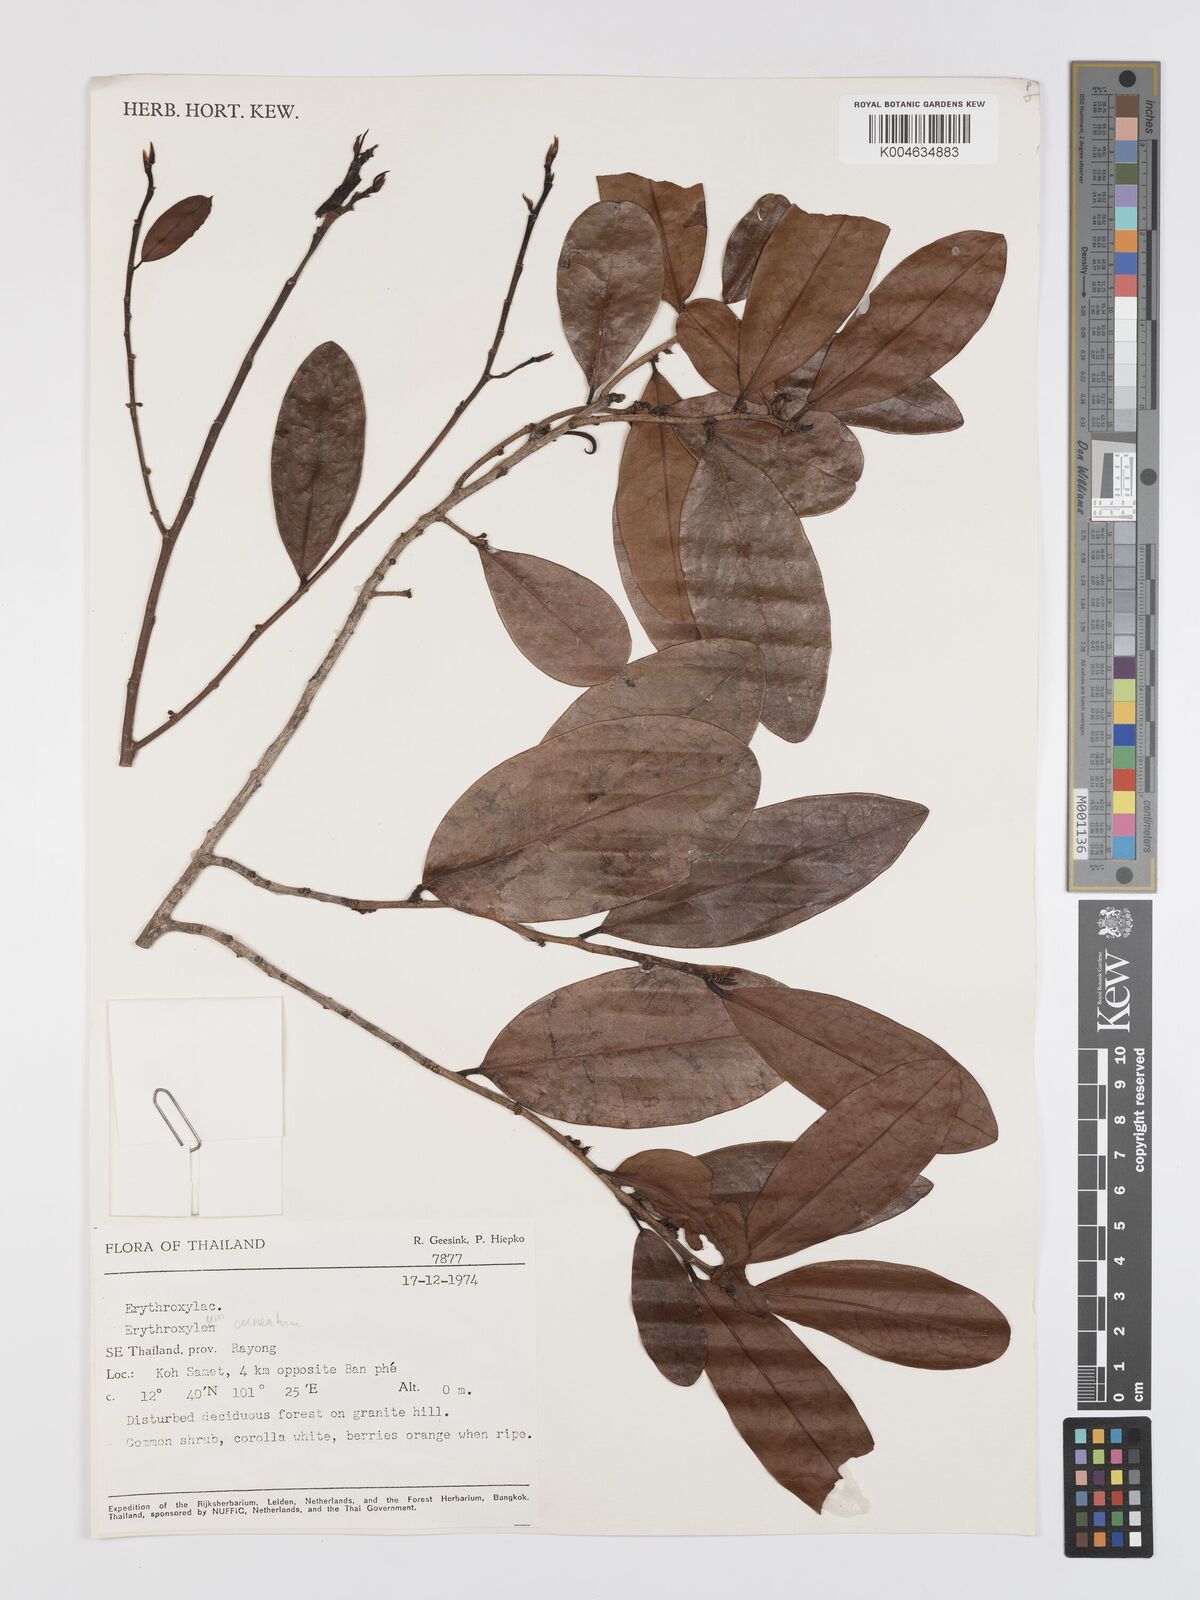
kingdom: Plantae
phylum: Tracheophyta
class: Magnoliopsida
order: Malpighiales
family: Erythroxylaceae
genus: Erythroxylum
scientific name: Erythroxylum
